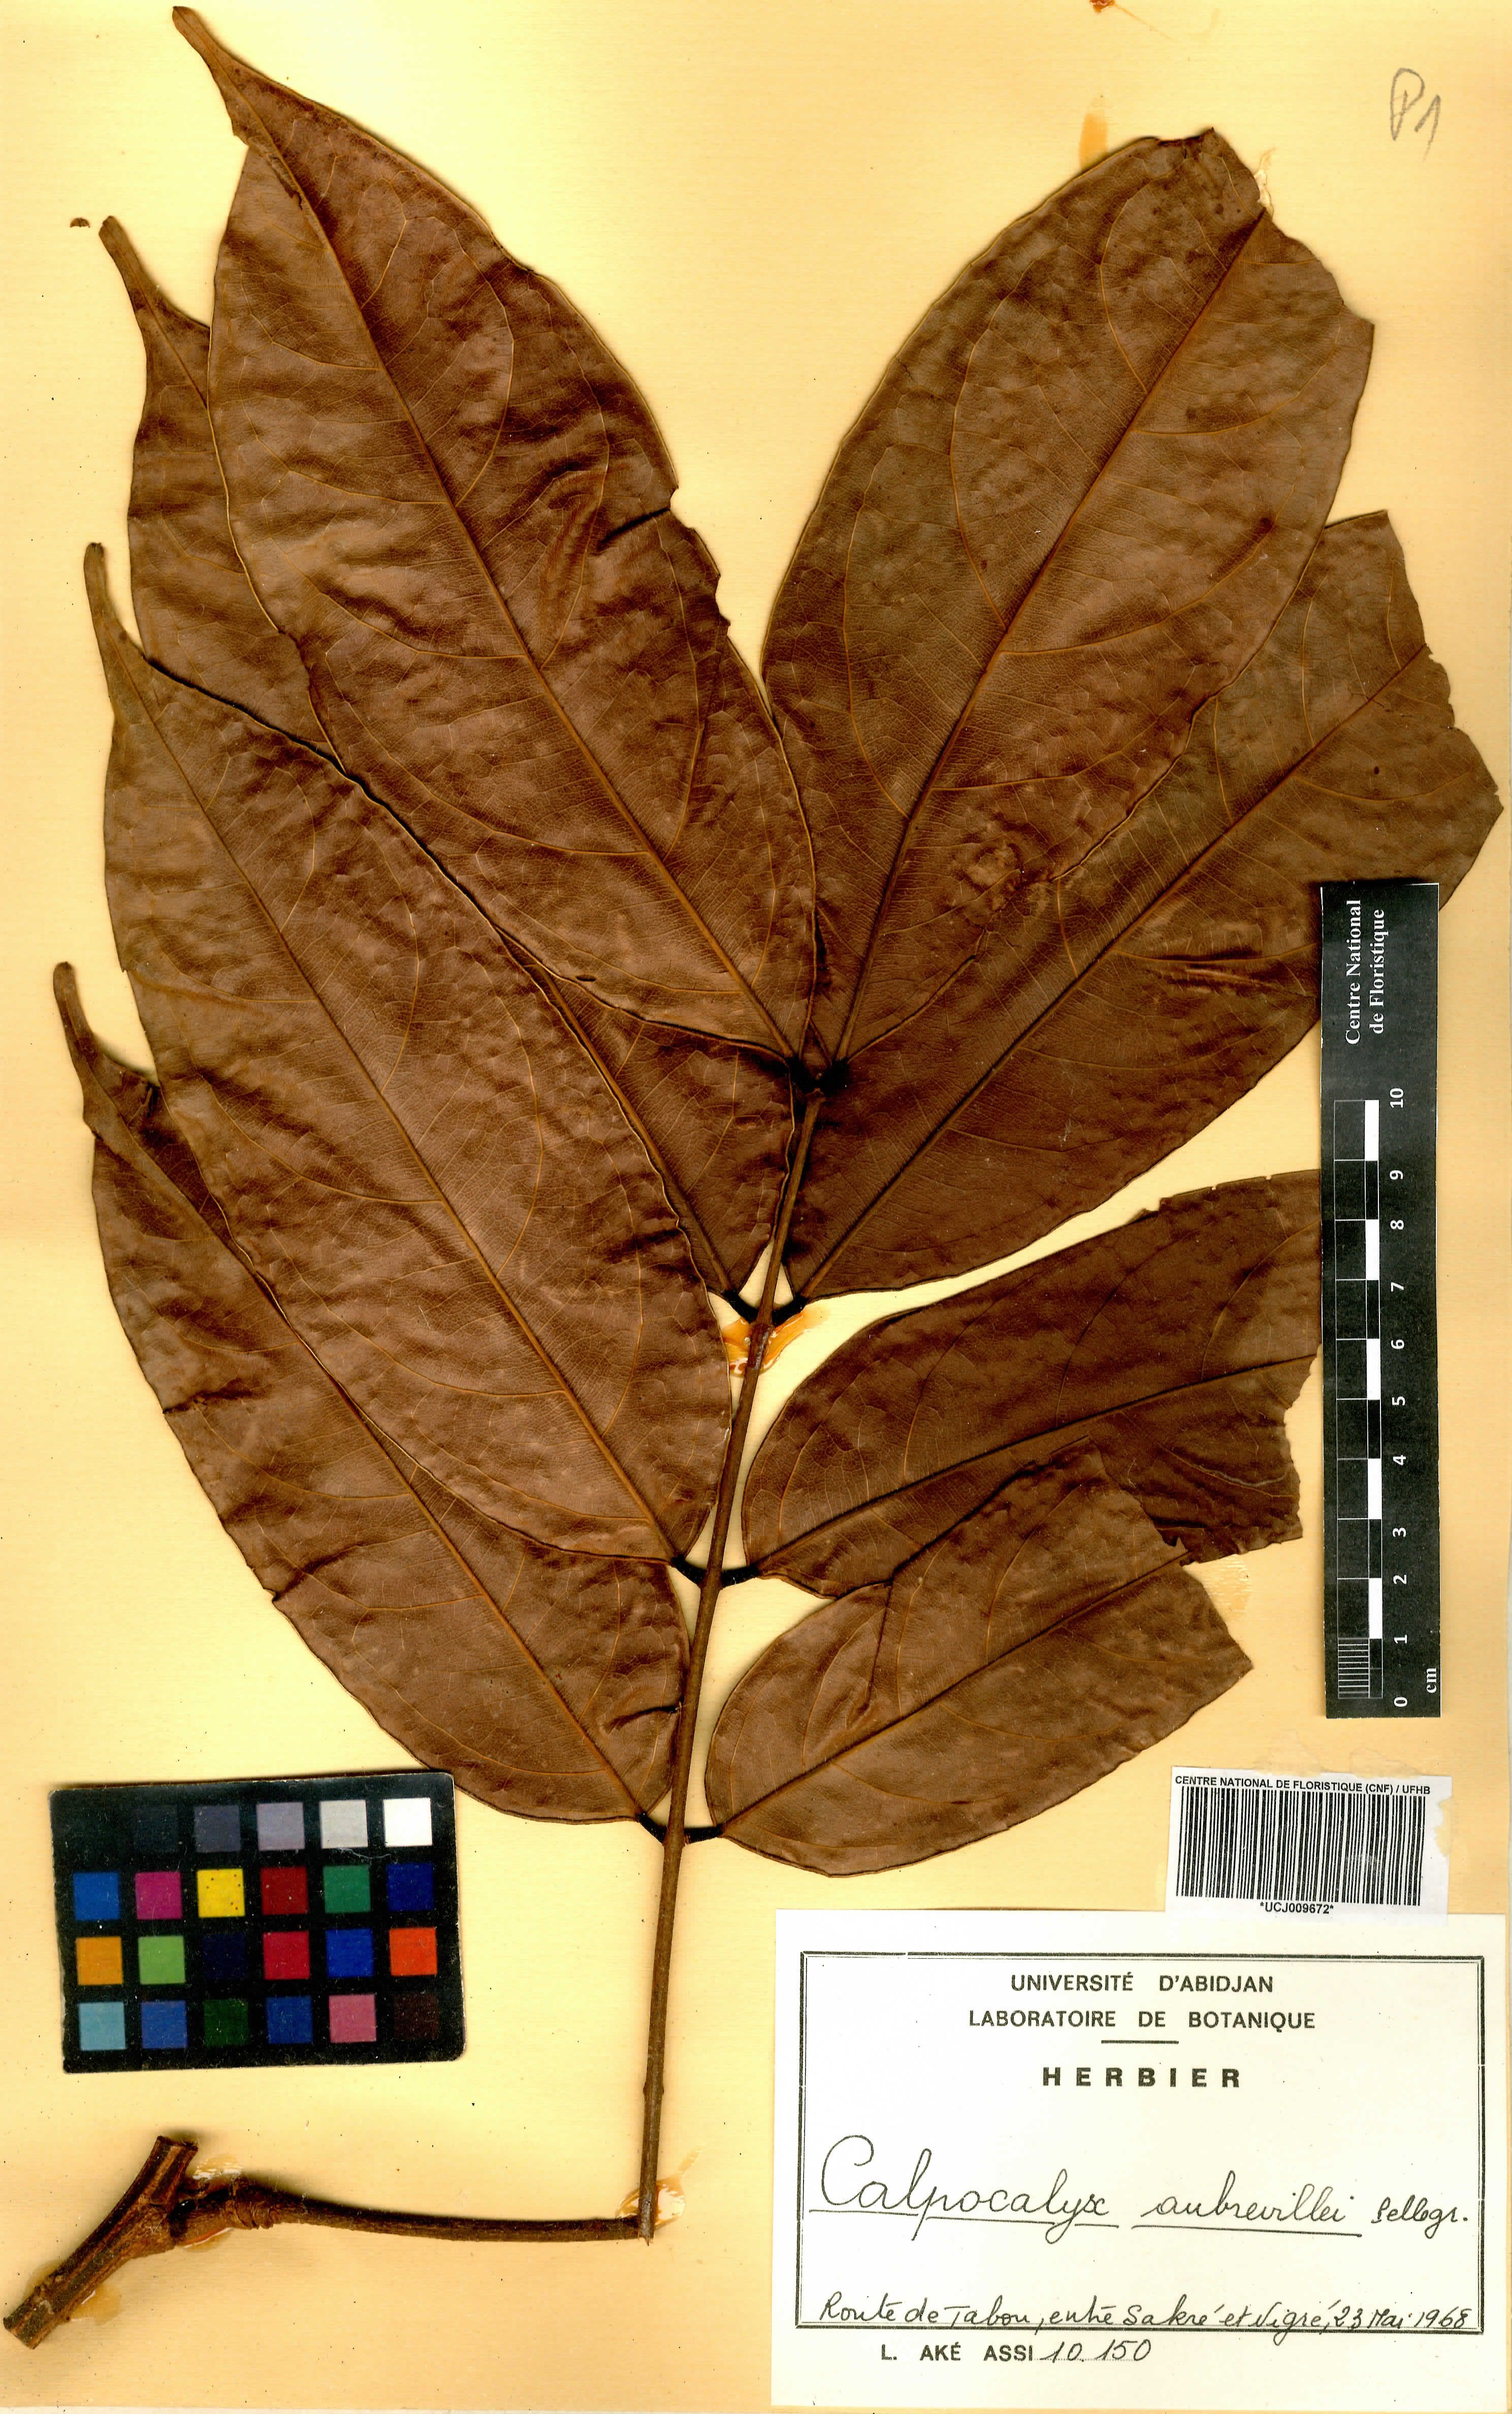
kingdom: Plantae
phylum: Tracheophyta
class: Magnoliopsida
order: Fabales
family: Fabaceae
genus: Calpocalyx
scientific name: Calpocalyx aubrevillei
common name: Badio (calpocalz)
